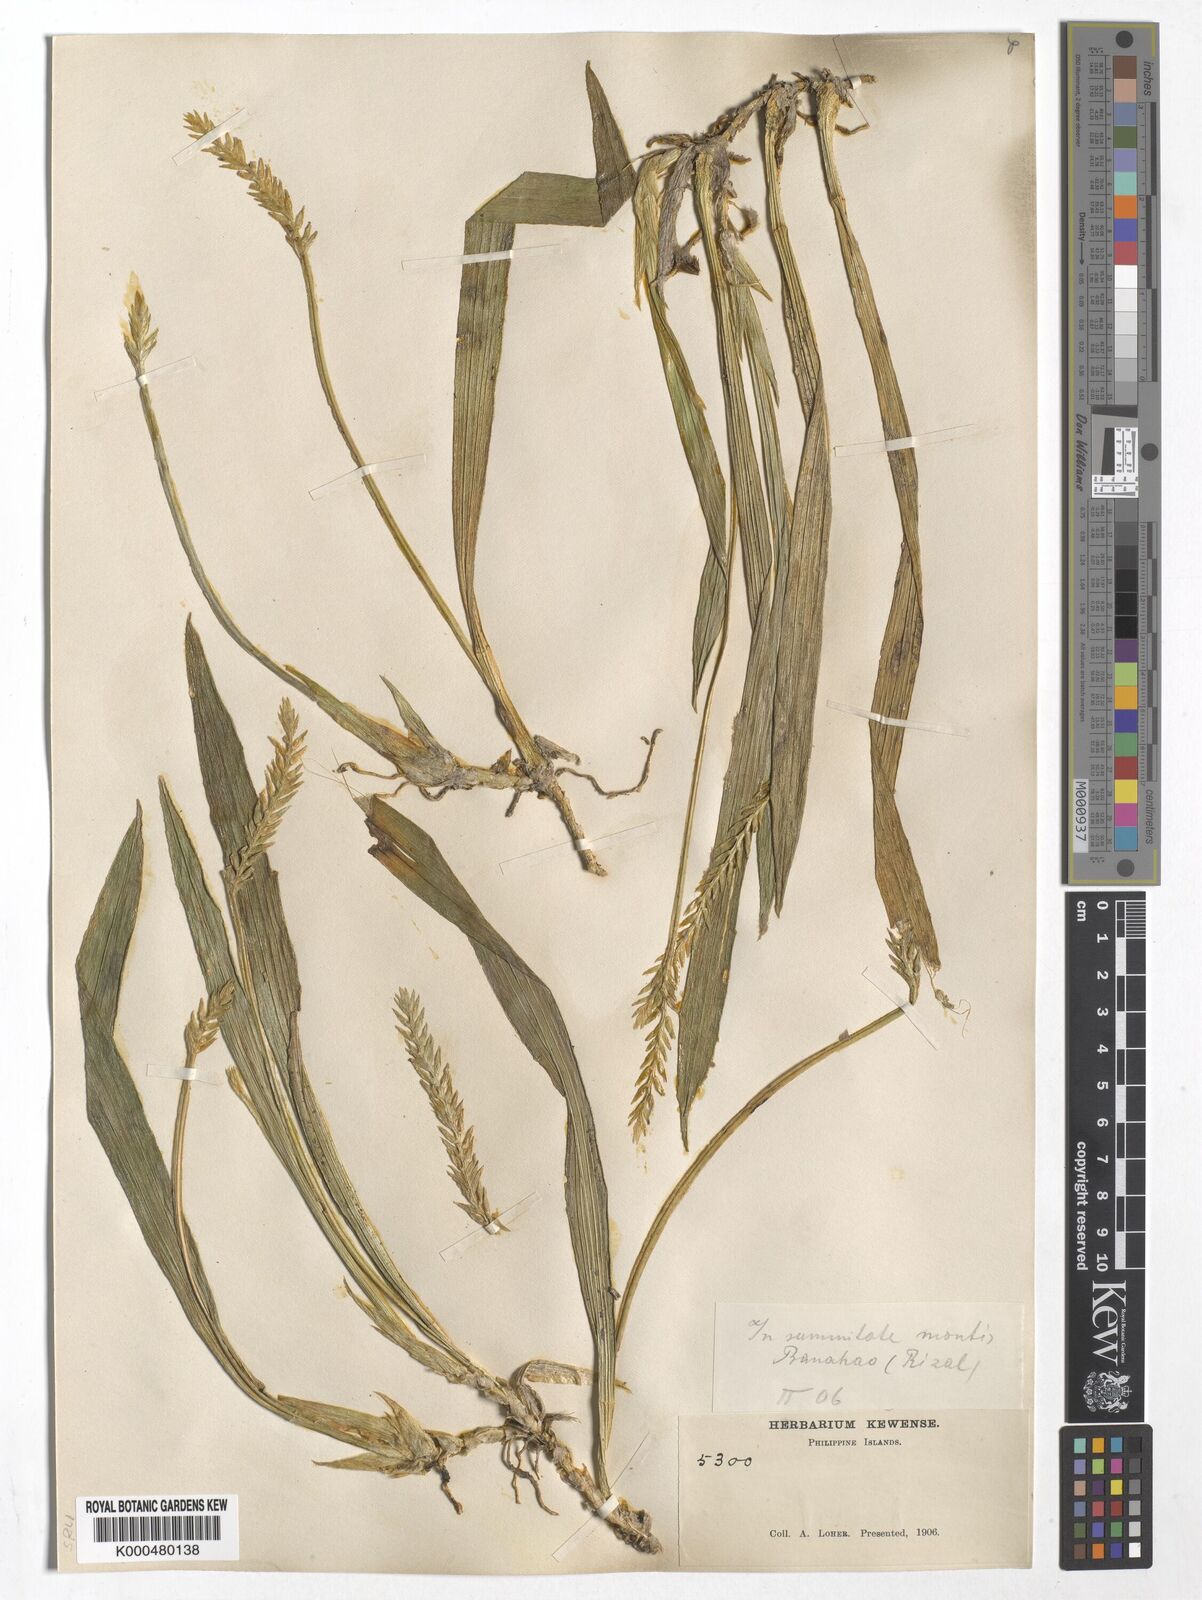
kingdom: Plantae
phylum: Tracheophyta
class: Liliopsida
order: Asparagales
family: Orchidaceae
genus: Liparis
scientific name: Liparis philippinensis
